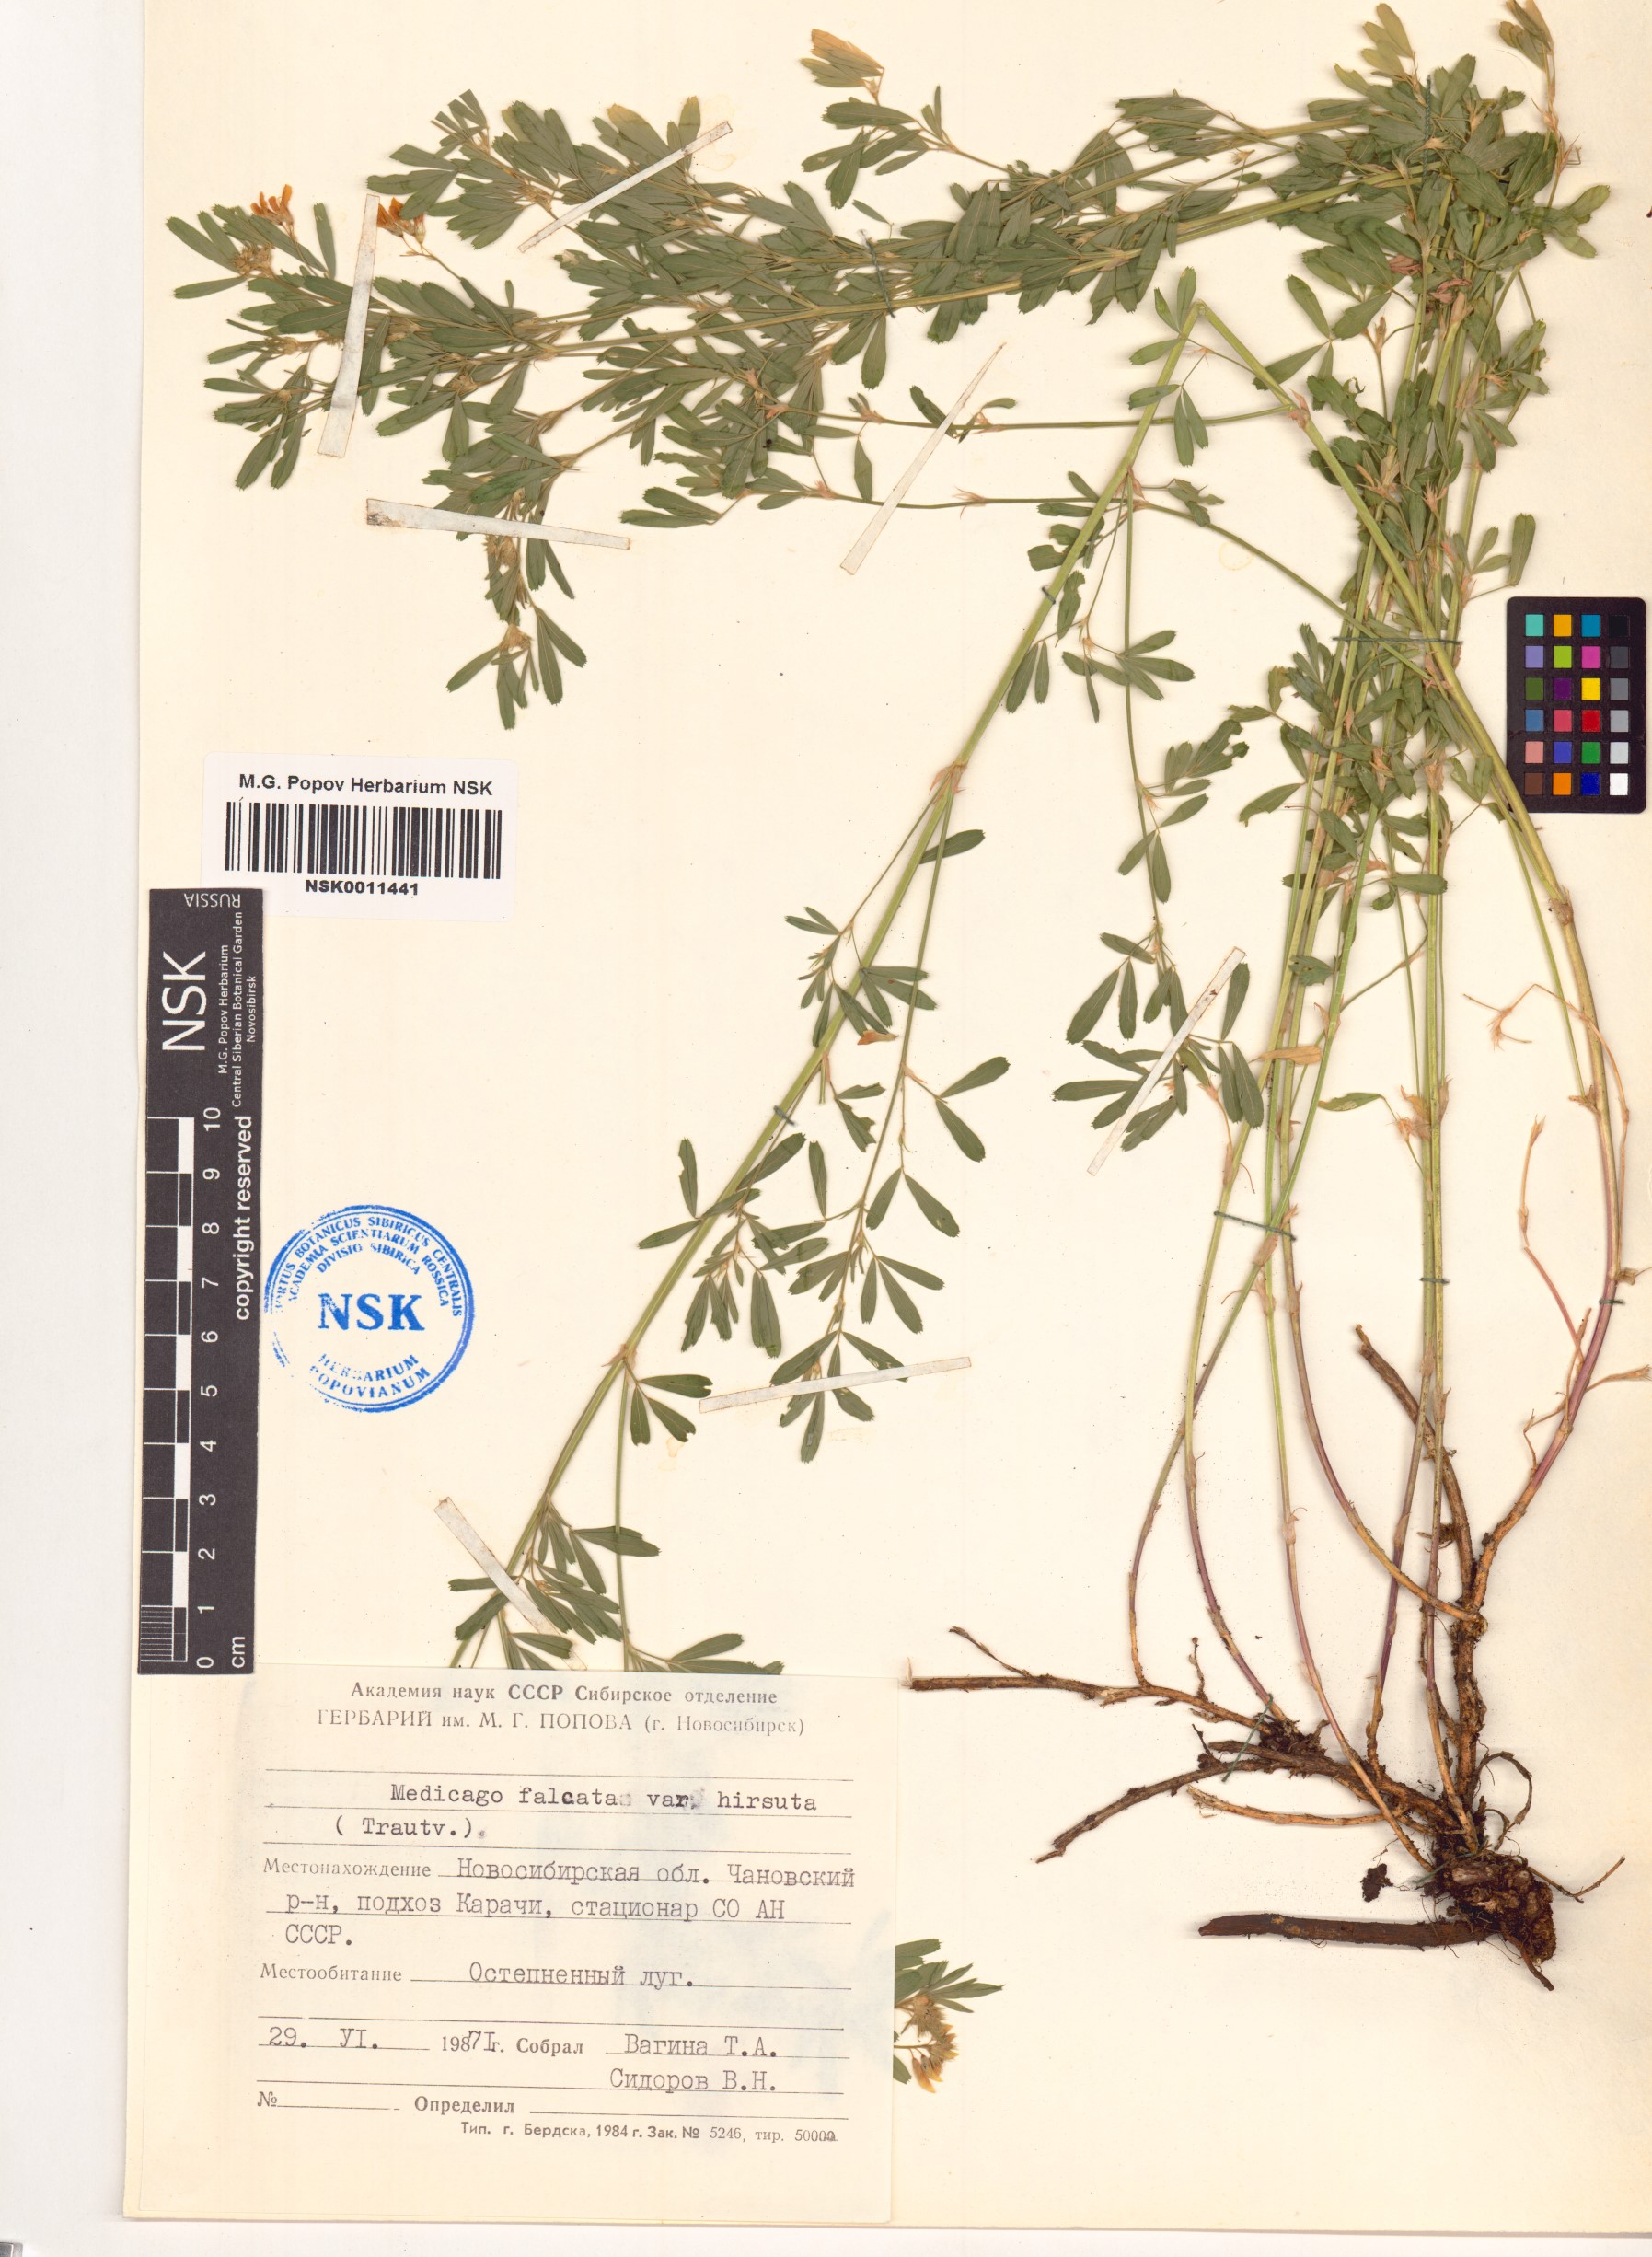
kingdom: Plantae
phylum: Tracheophyta
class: Magnoliopsida
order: Fabales
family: Fabaceae
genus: Medicago
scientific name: Medicago falcata
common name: Sickle medick
